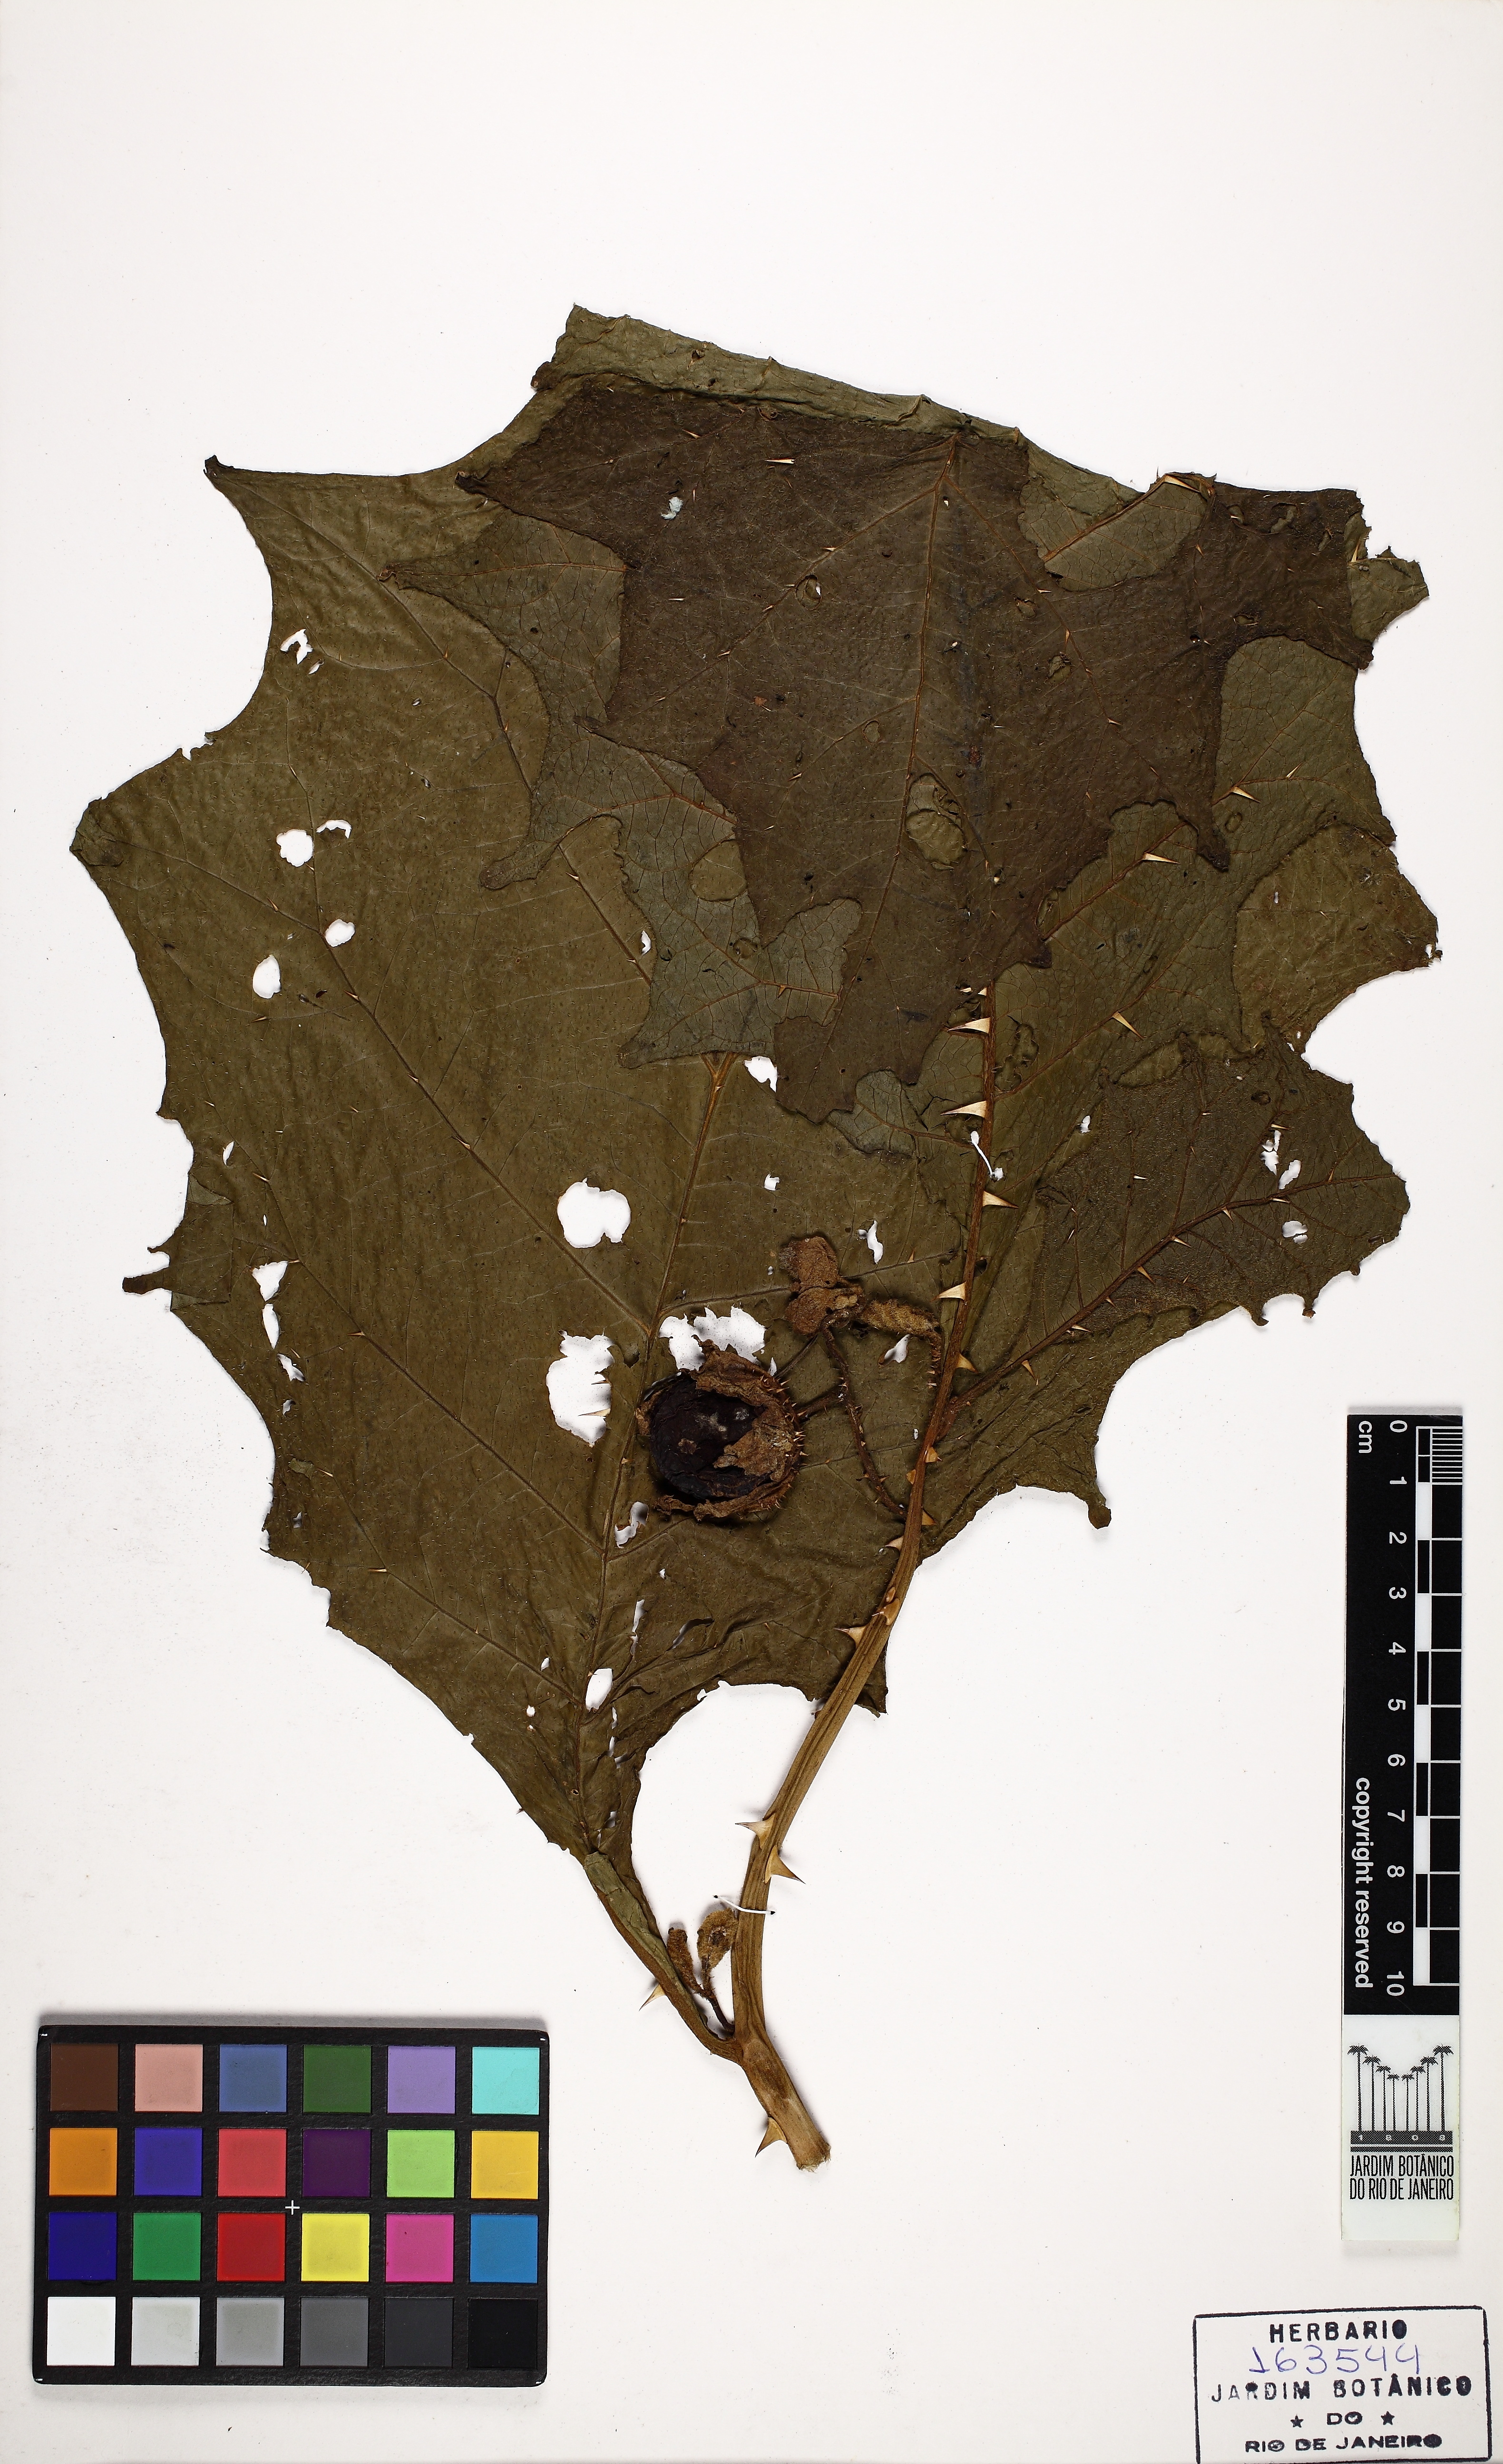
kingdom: Plantae
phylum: Tracheophyta
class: Magnoliopsida
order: Solanales
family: Solanaceae
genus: Solanum
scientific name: Solanum hexandrum
